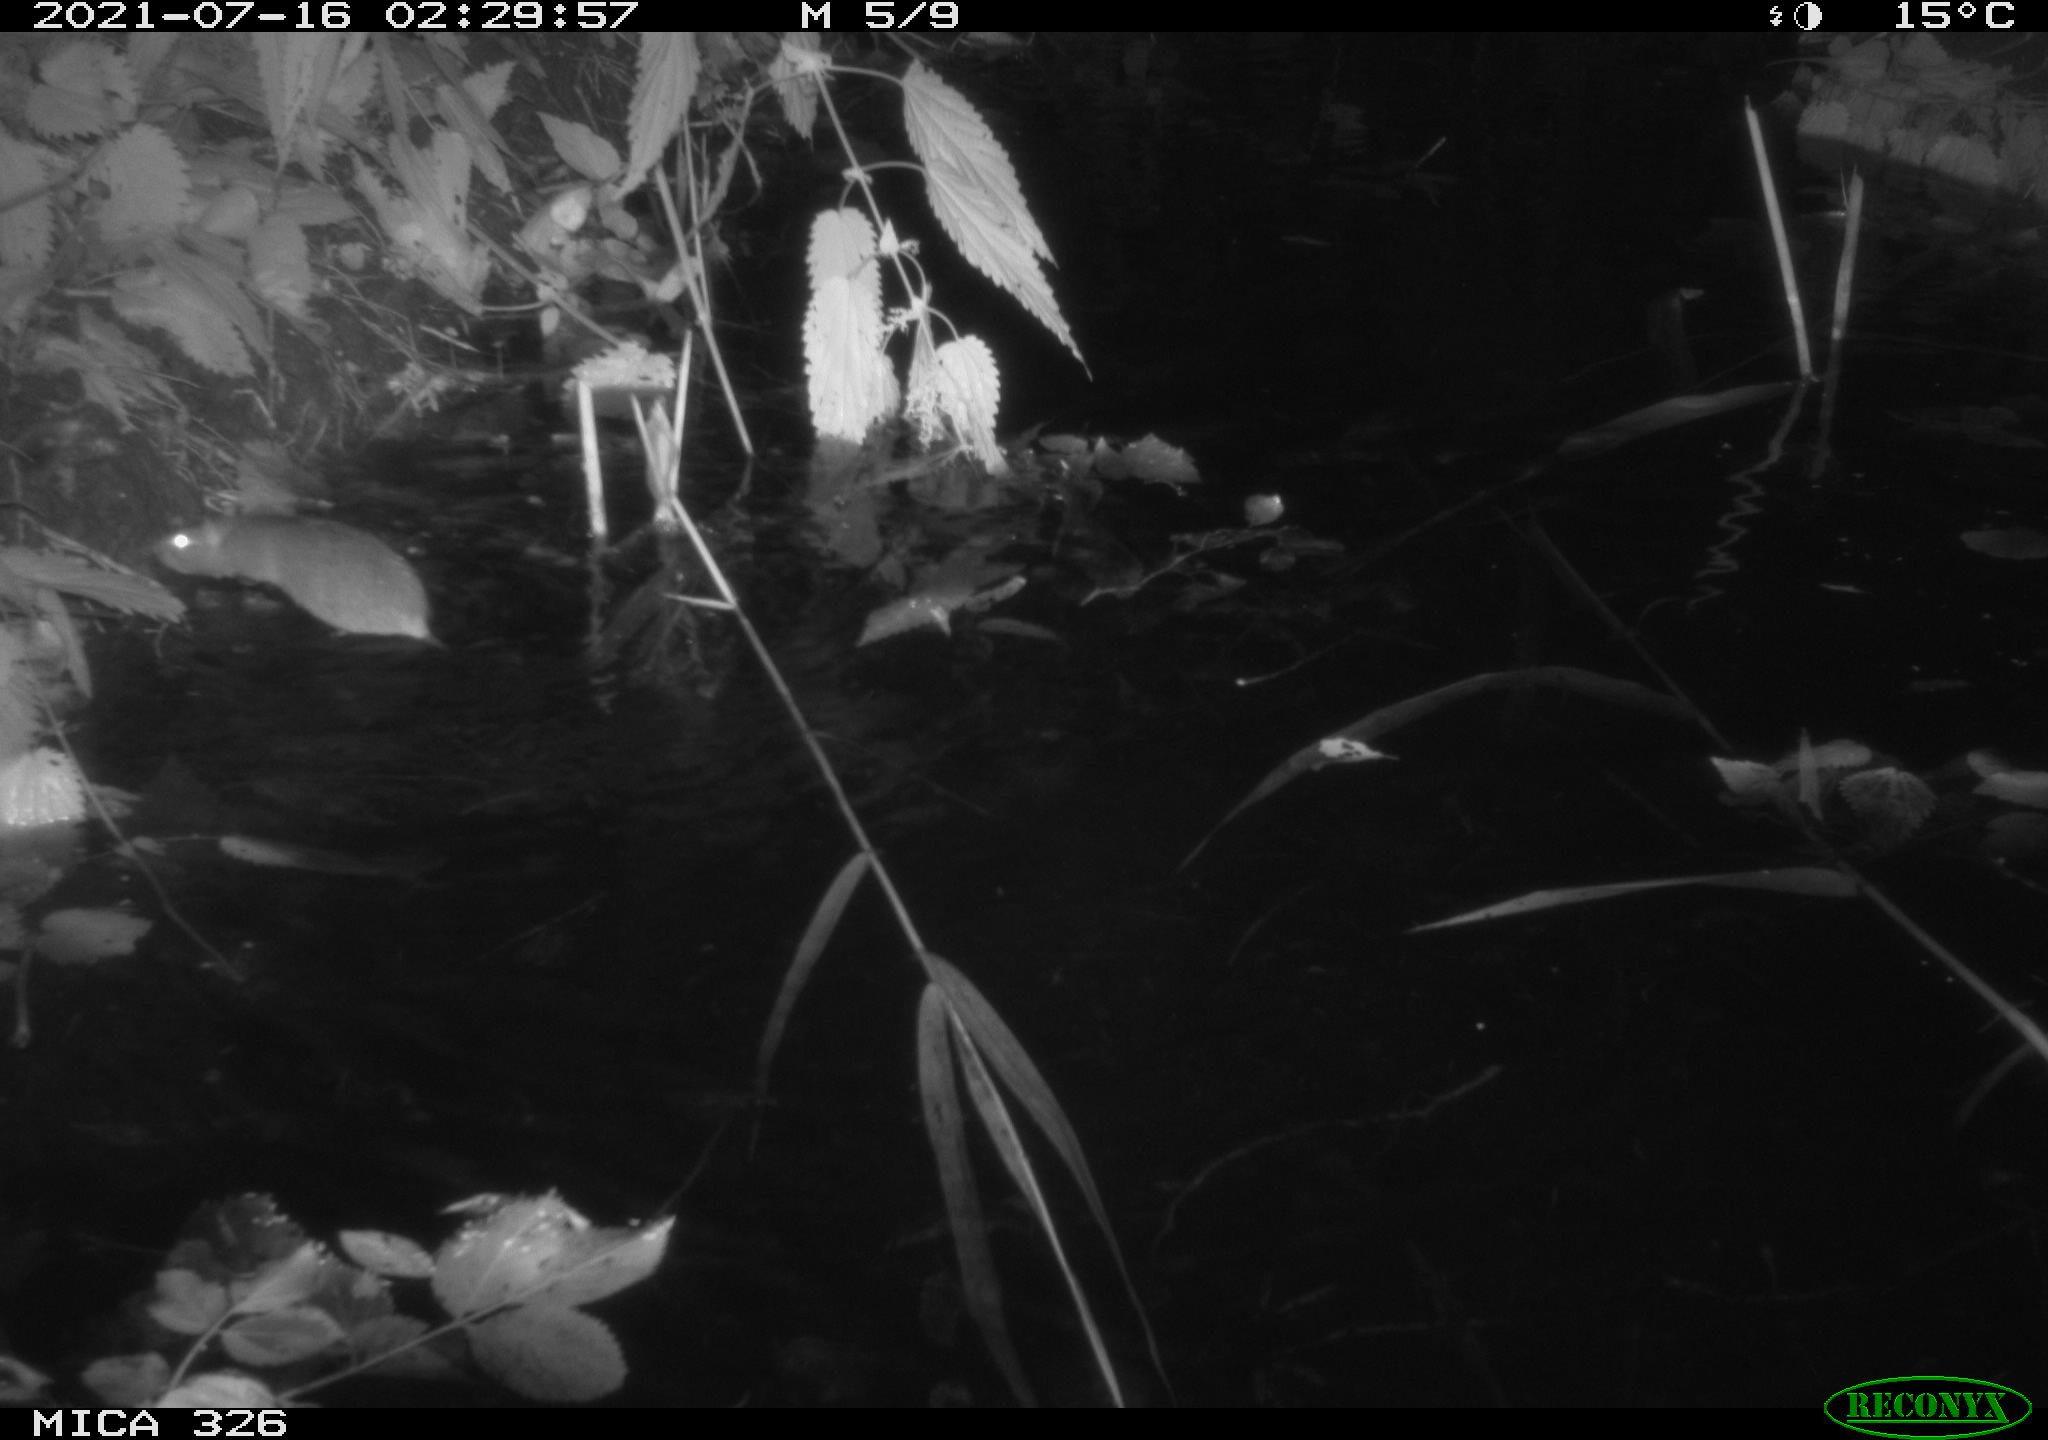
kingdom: Animalia
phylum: Chordata
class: Mammalia
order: Rodentia
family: Muridae
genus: Rattus
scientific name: Rattus norvegicus
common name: Brown rat
